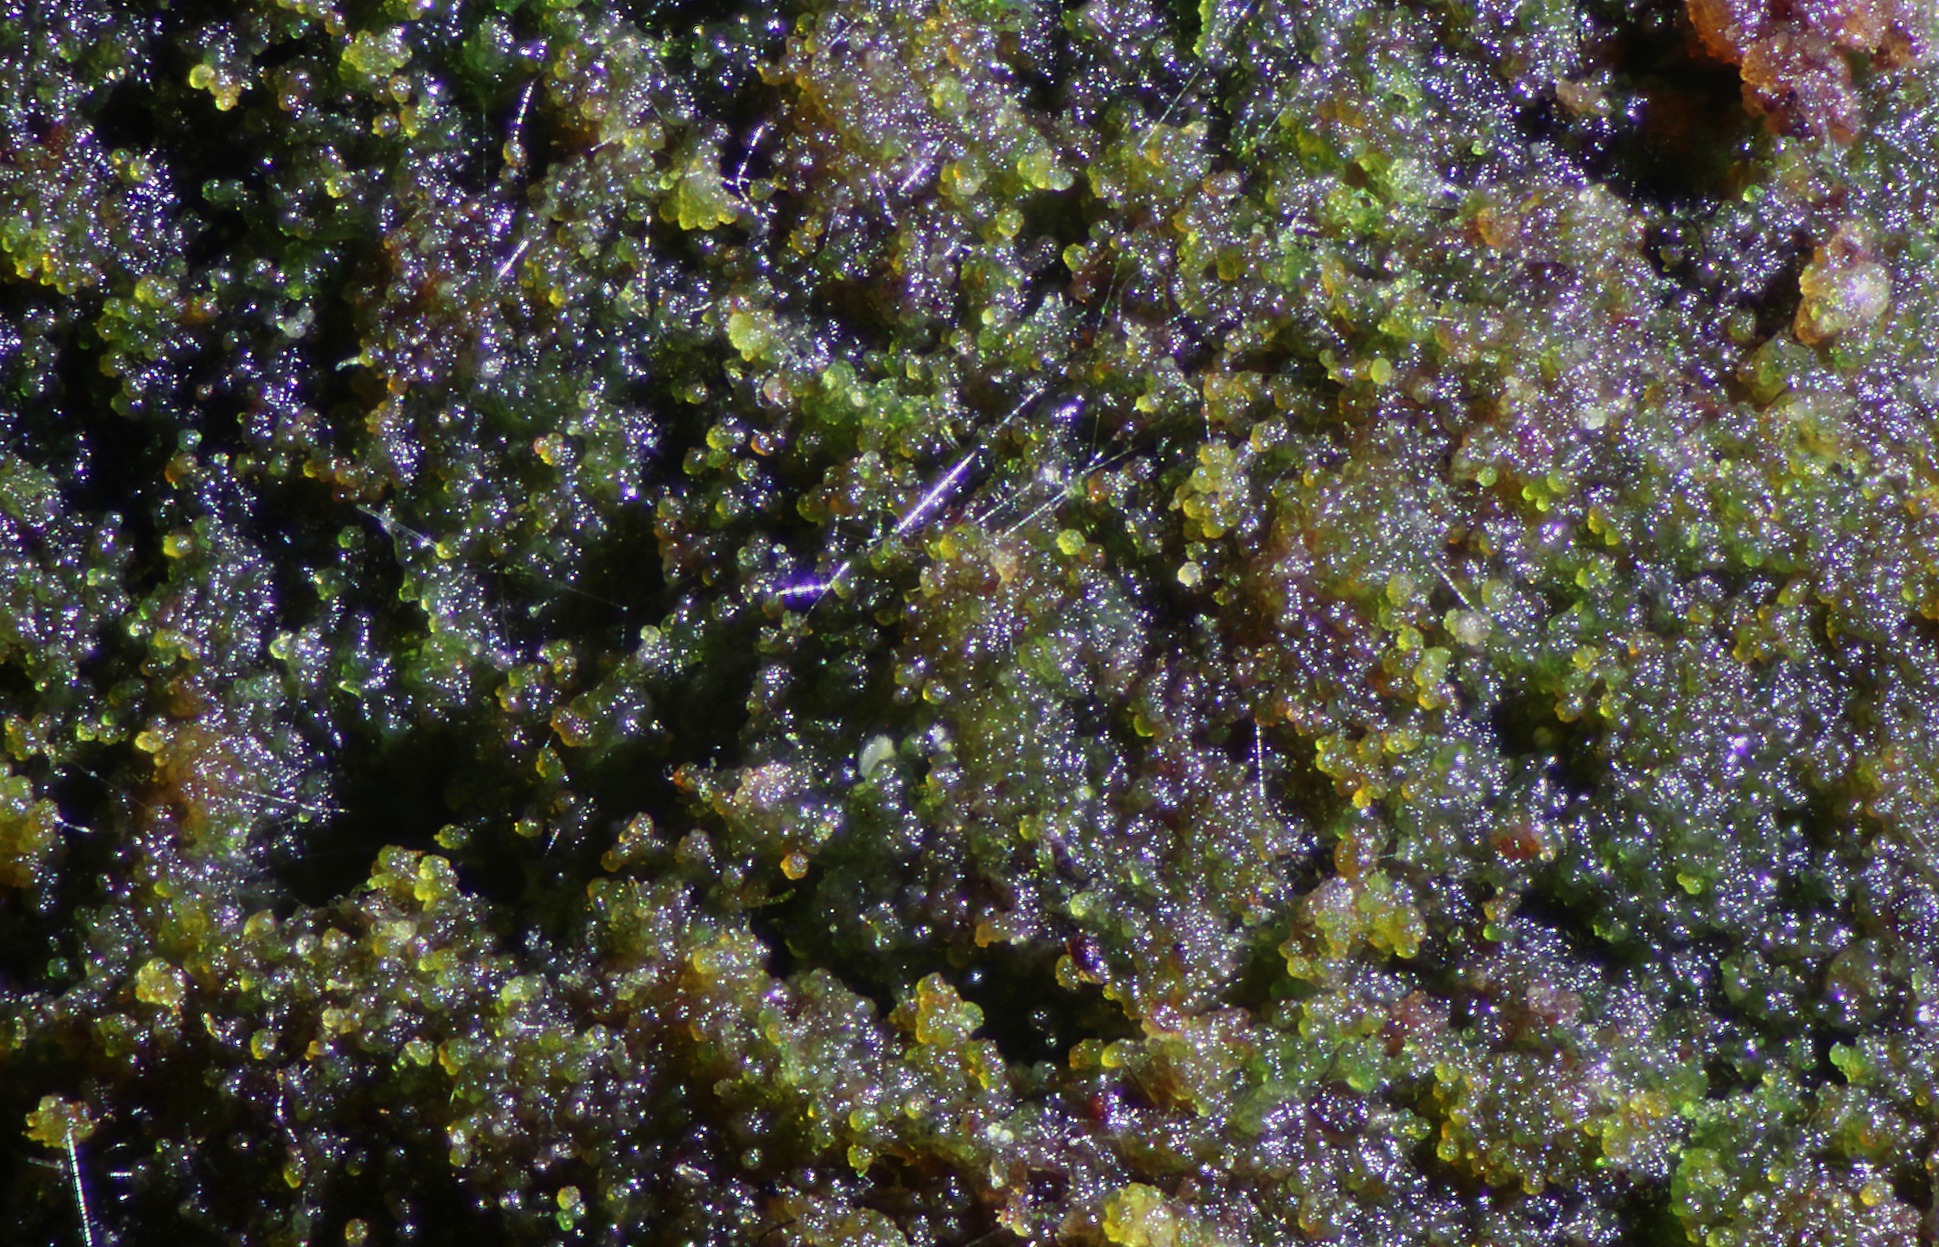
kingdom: Plantae
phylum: Bryophyta
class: Bryopsida
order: Buxbaumiales
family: Buxbaumiaceae
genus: Buxbaumia
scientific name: Buxbaumia viridis
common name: Grøn buxbaumia
